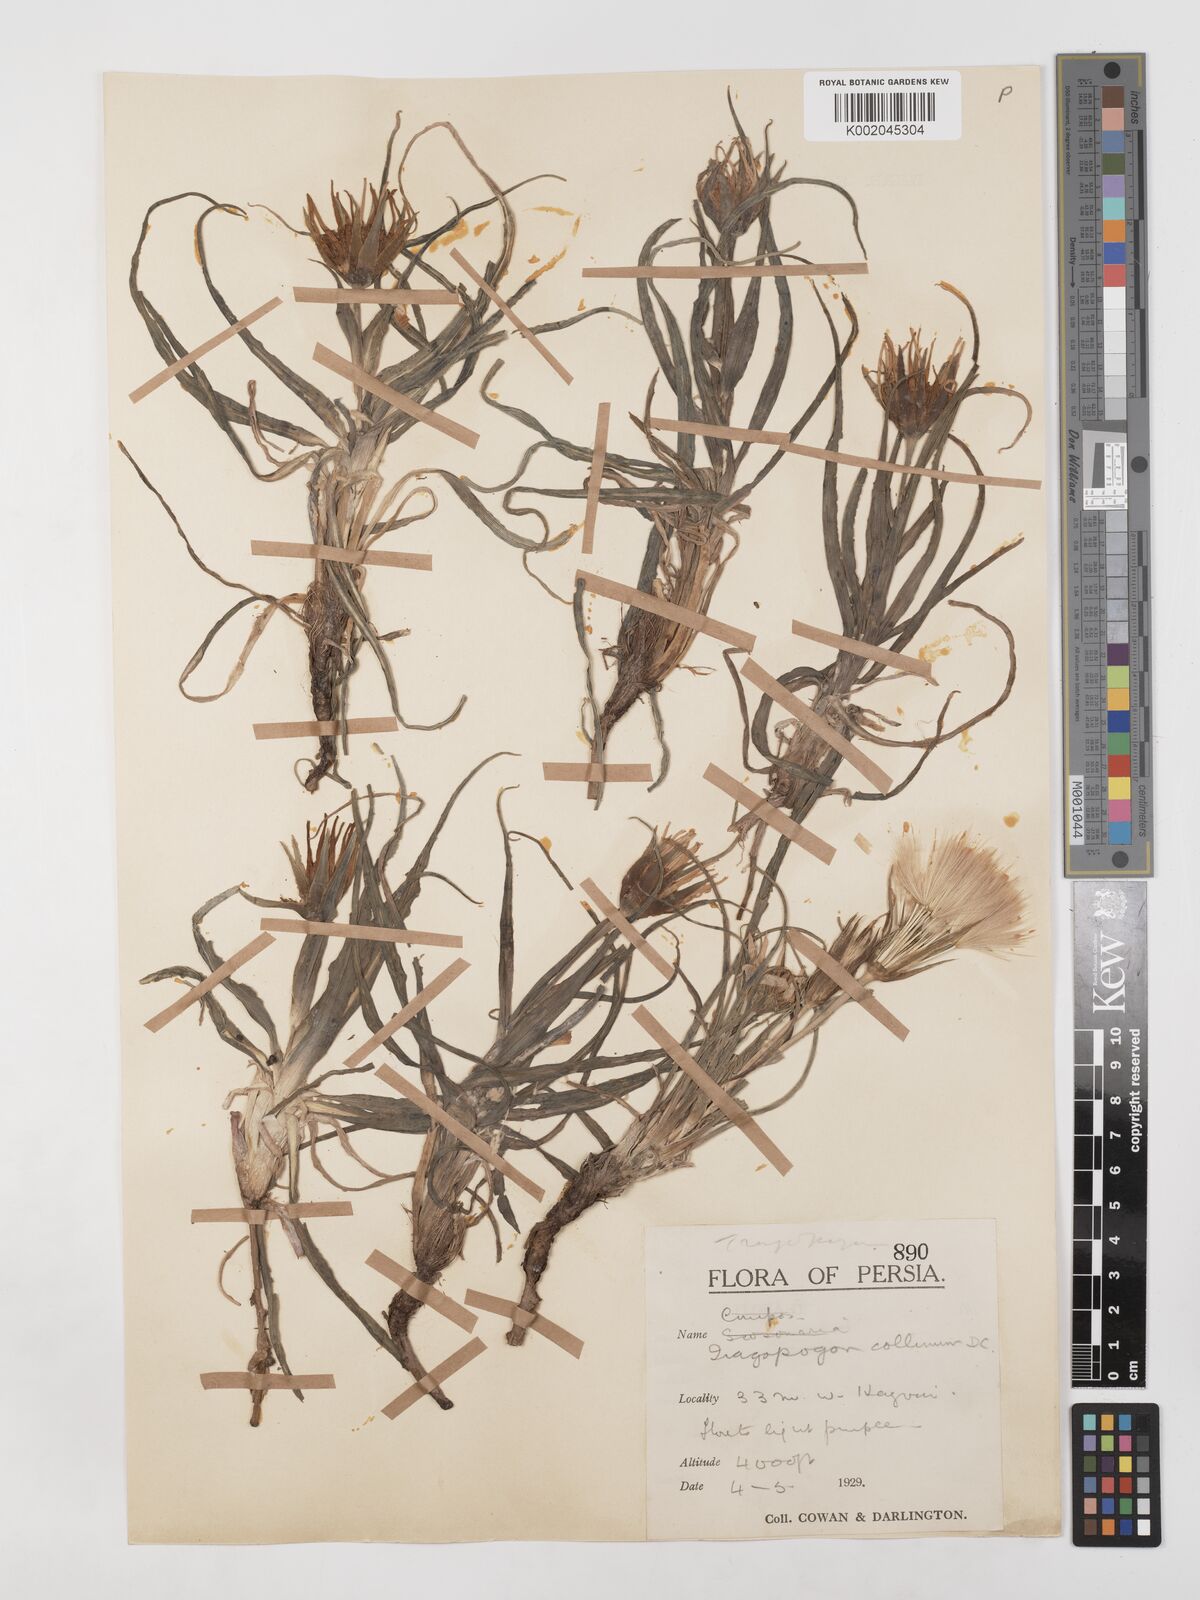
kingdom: Plantae
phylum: Tracheophyta
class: Magnoliopsida
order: Asterales
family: Asteraceae
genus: Tragopogon
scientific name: Tragopogon collinus
